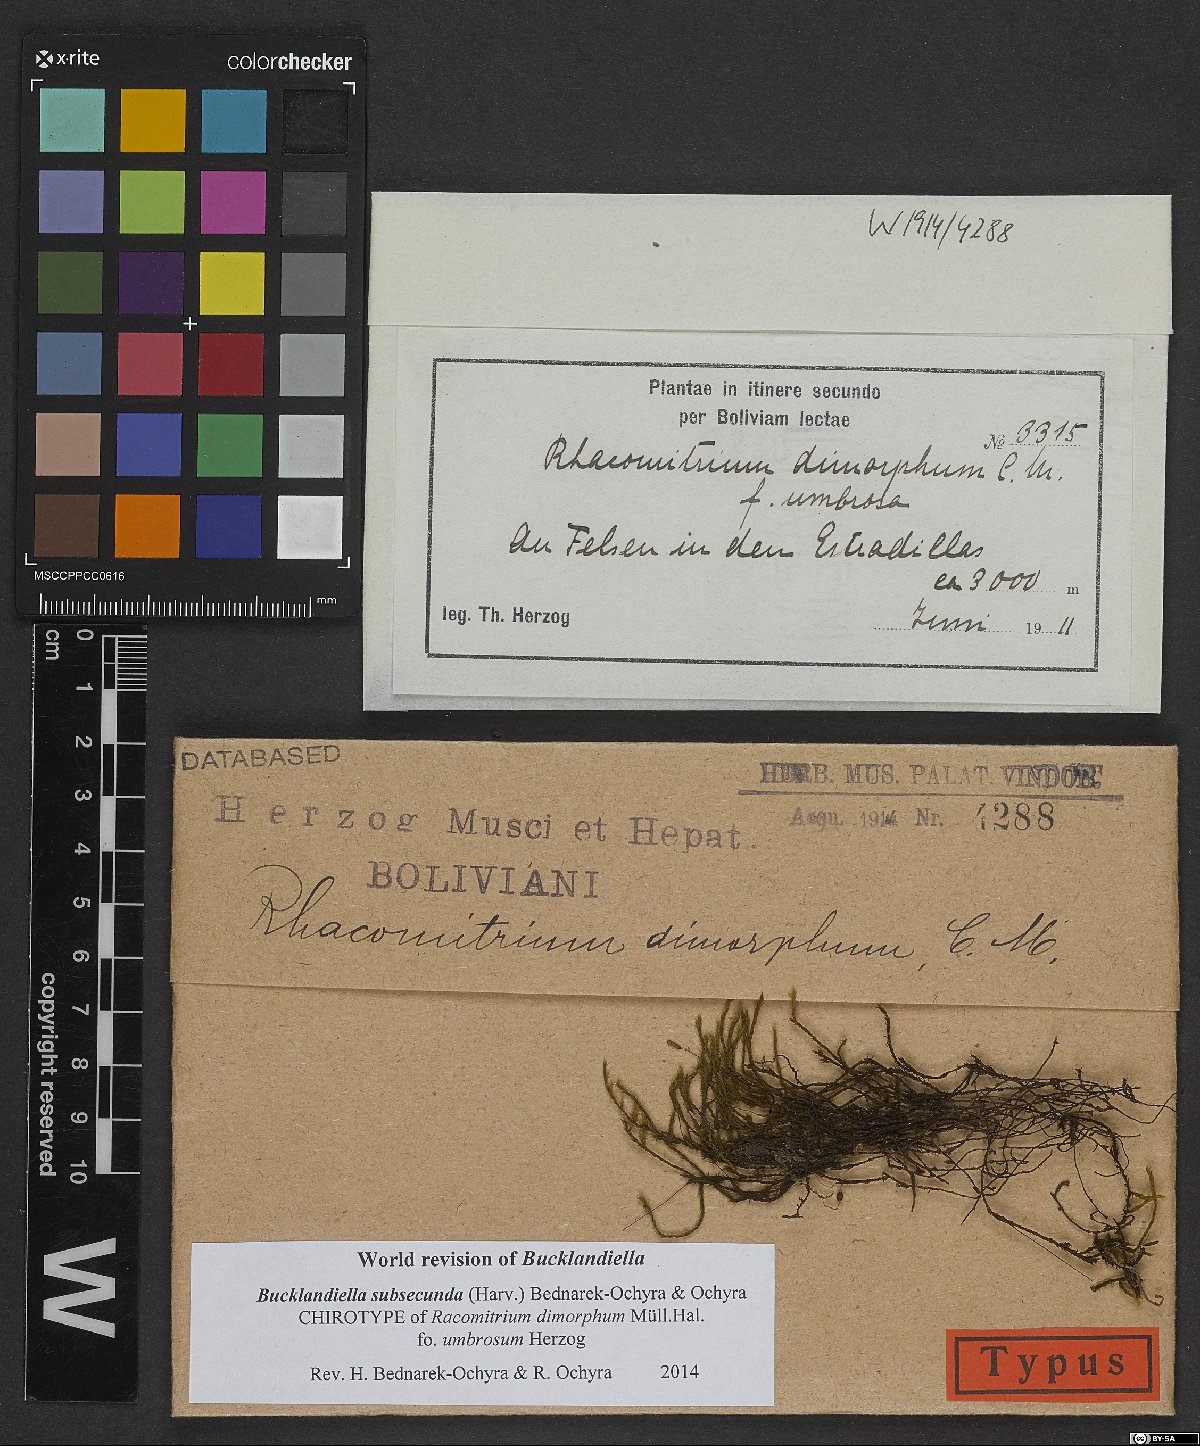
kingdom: Plantae
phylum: Bryophyta
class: Bryopsida
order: Grimmiales
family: Grimmiaceae
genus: Bucklandiella
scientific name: Bucklandiella crispipila
